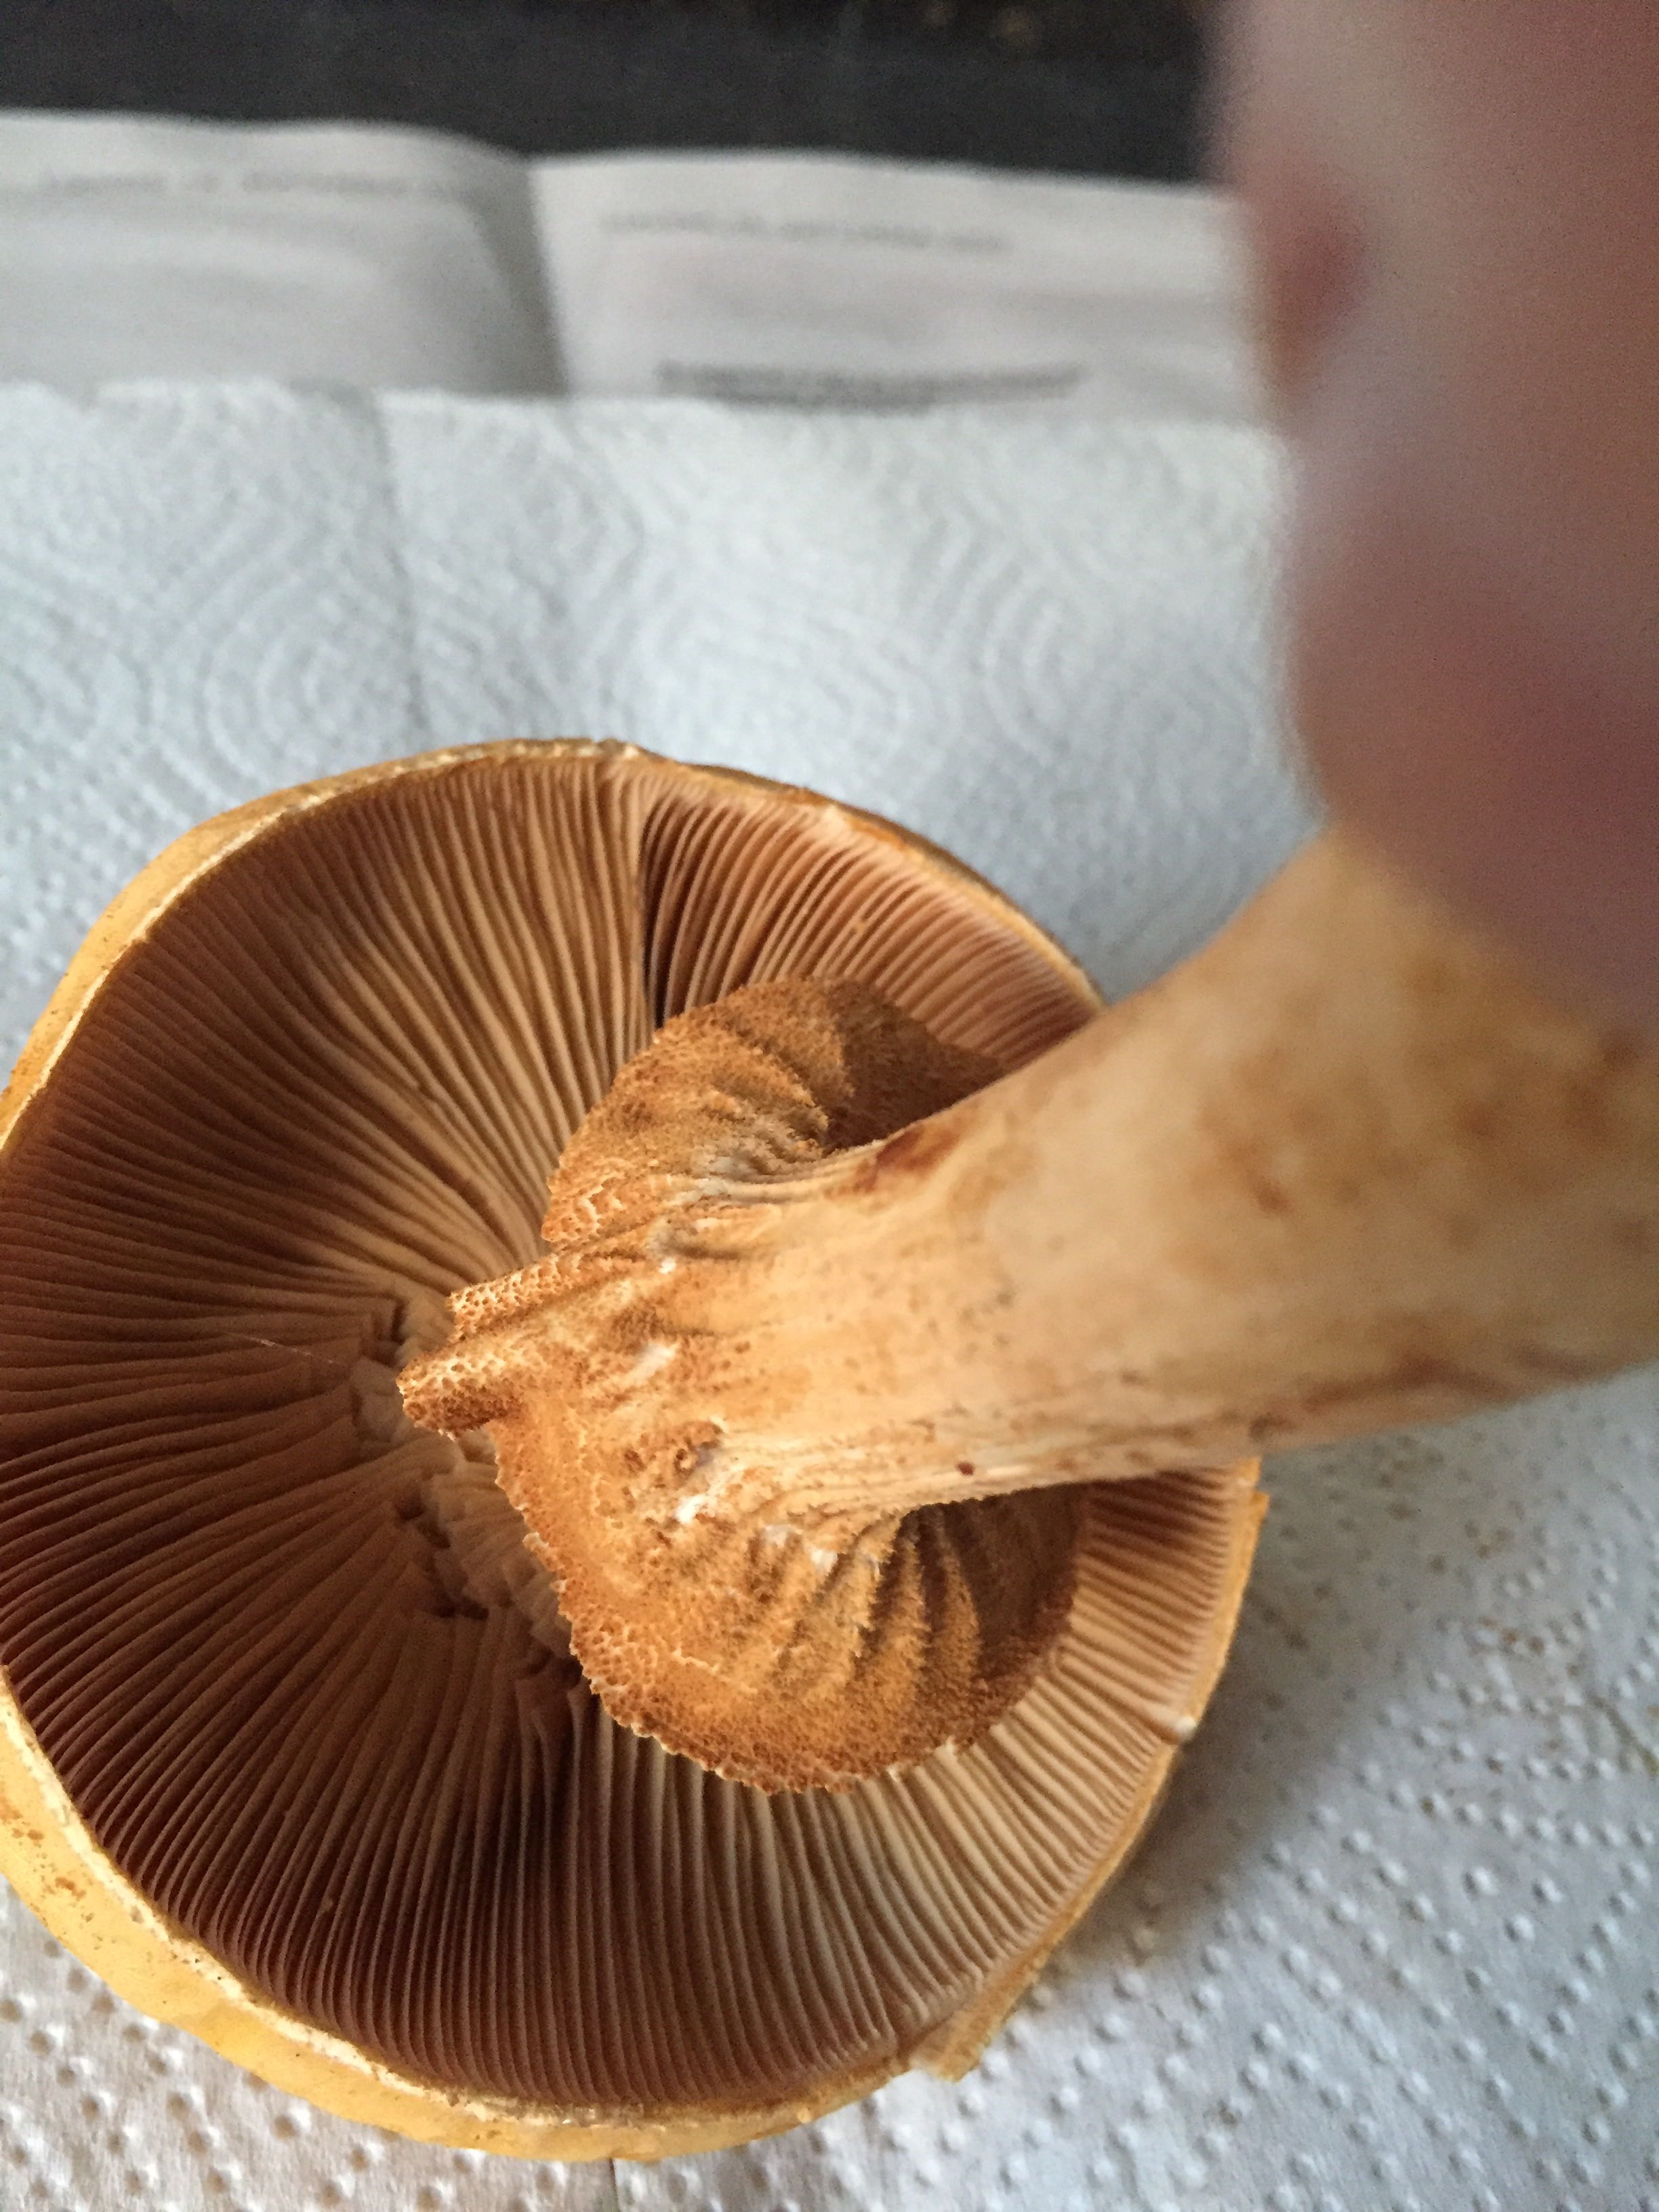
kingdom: Fungi
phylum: Basidiomycota
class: Agaricomycetes
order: Agaricales
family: Tricholomataceae
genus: Phaeolepiota
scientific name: Phaeolepiota aurea
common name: gyldenhat
